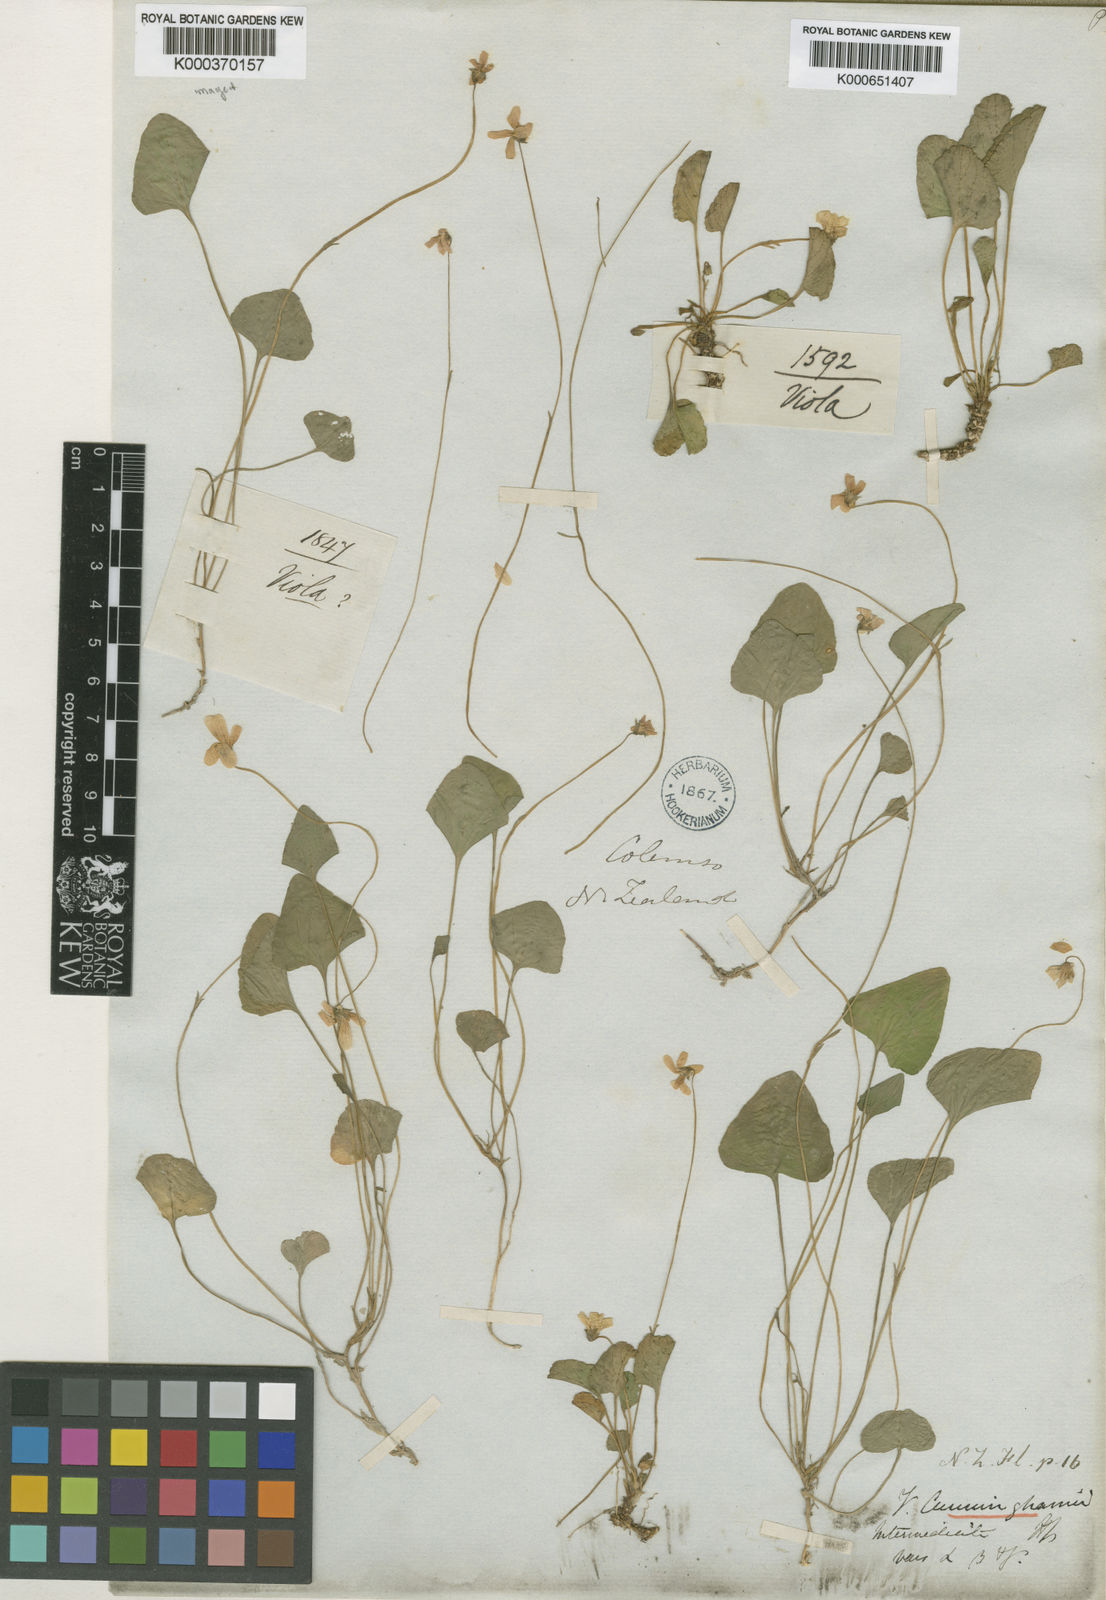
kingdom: Plantae
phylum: Tracheophyta
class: Magnoliopsida
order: Malpighiales
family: Violaceae
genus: Viola
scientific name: Viola cunninghamii
